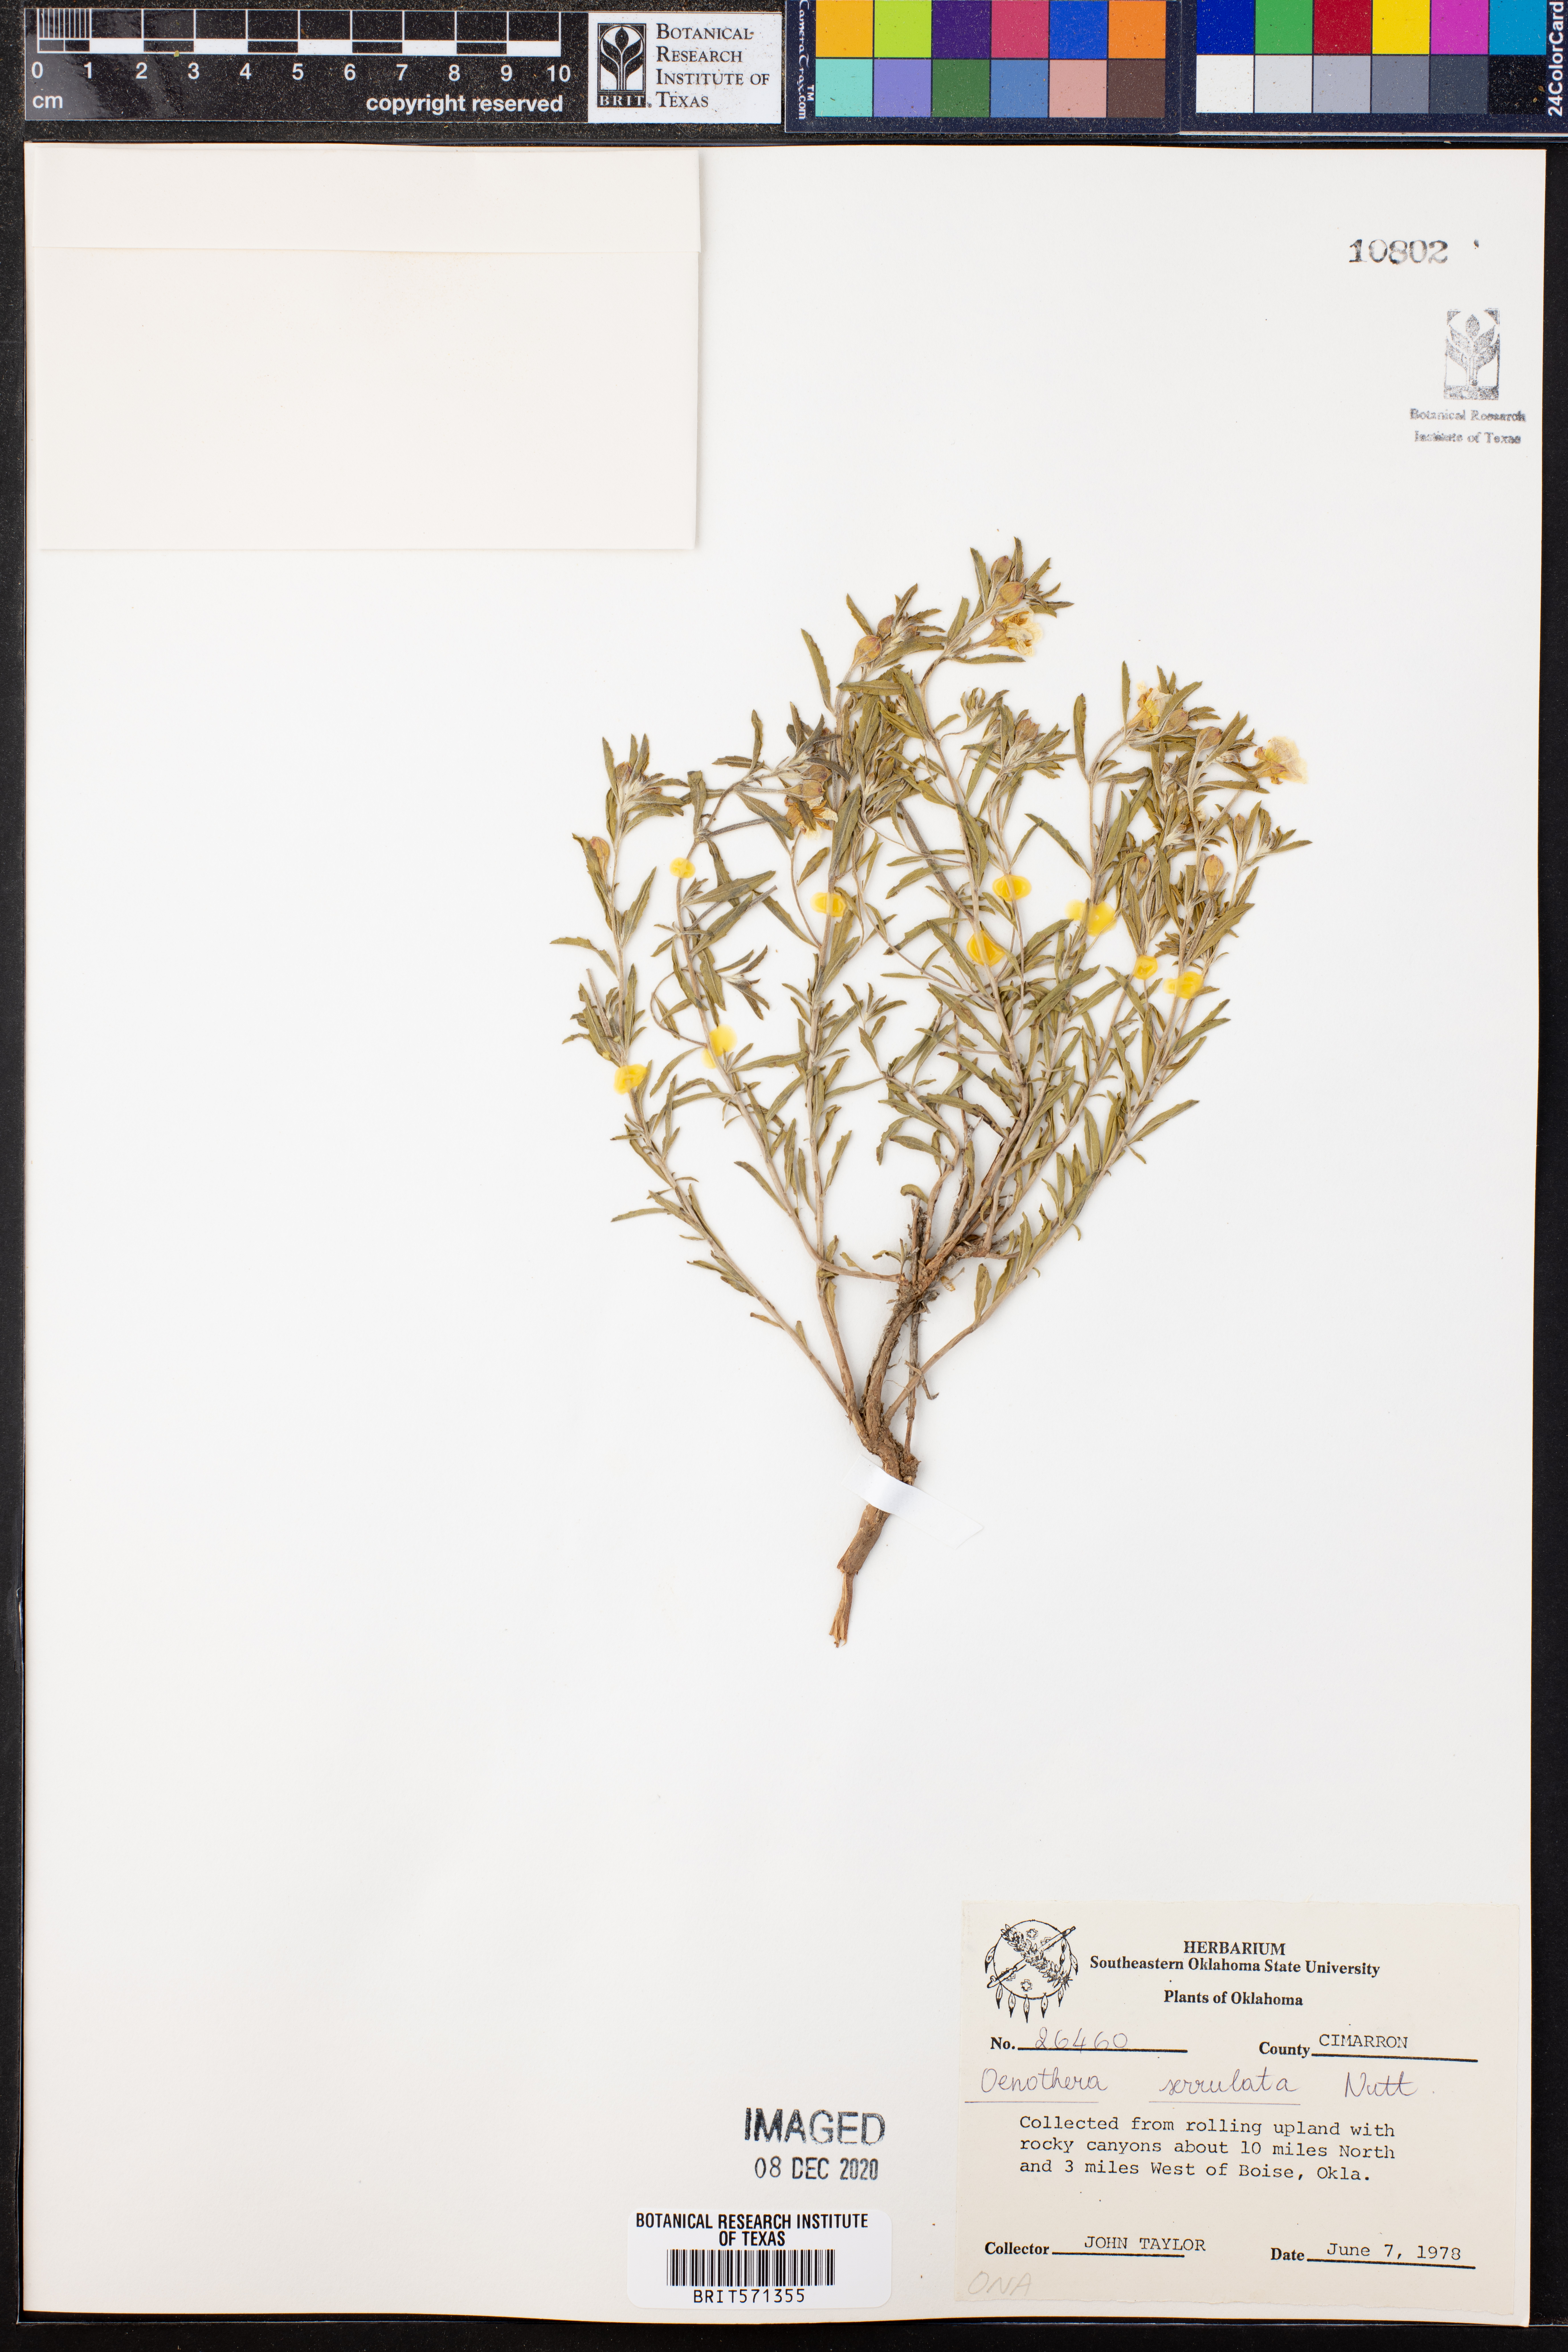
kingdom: Plantae
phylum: Tracheophyta
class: Magnoliopsida
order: Myrtales
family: Onagraceae
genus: Oenothera
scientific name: Oenothera serrulata
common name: Half-shrub calylophus
